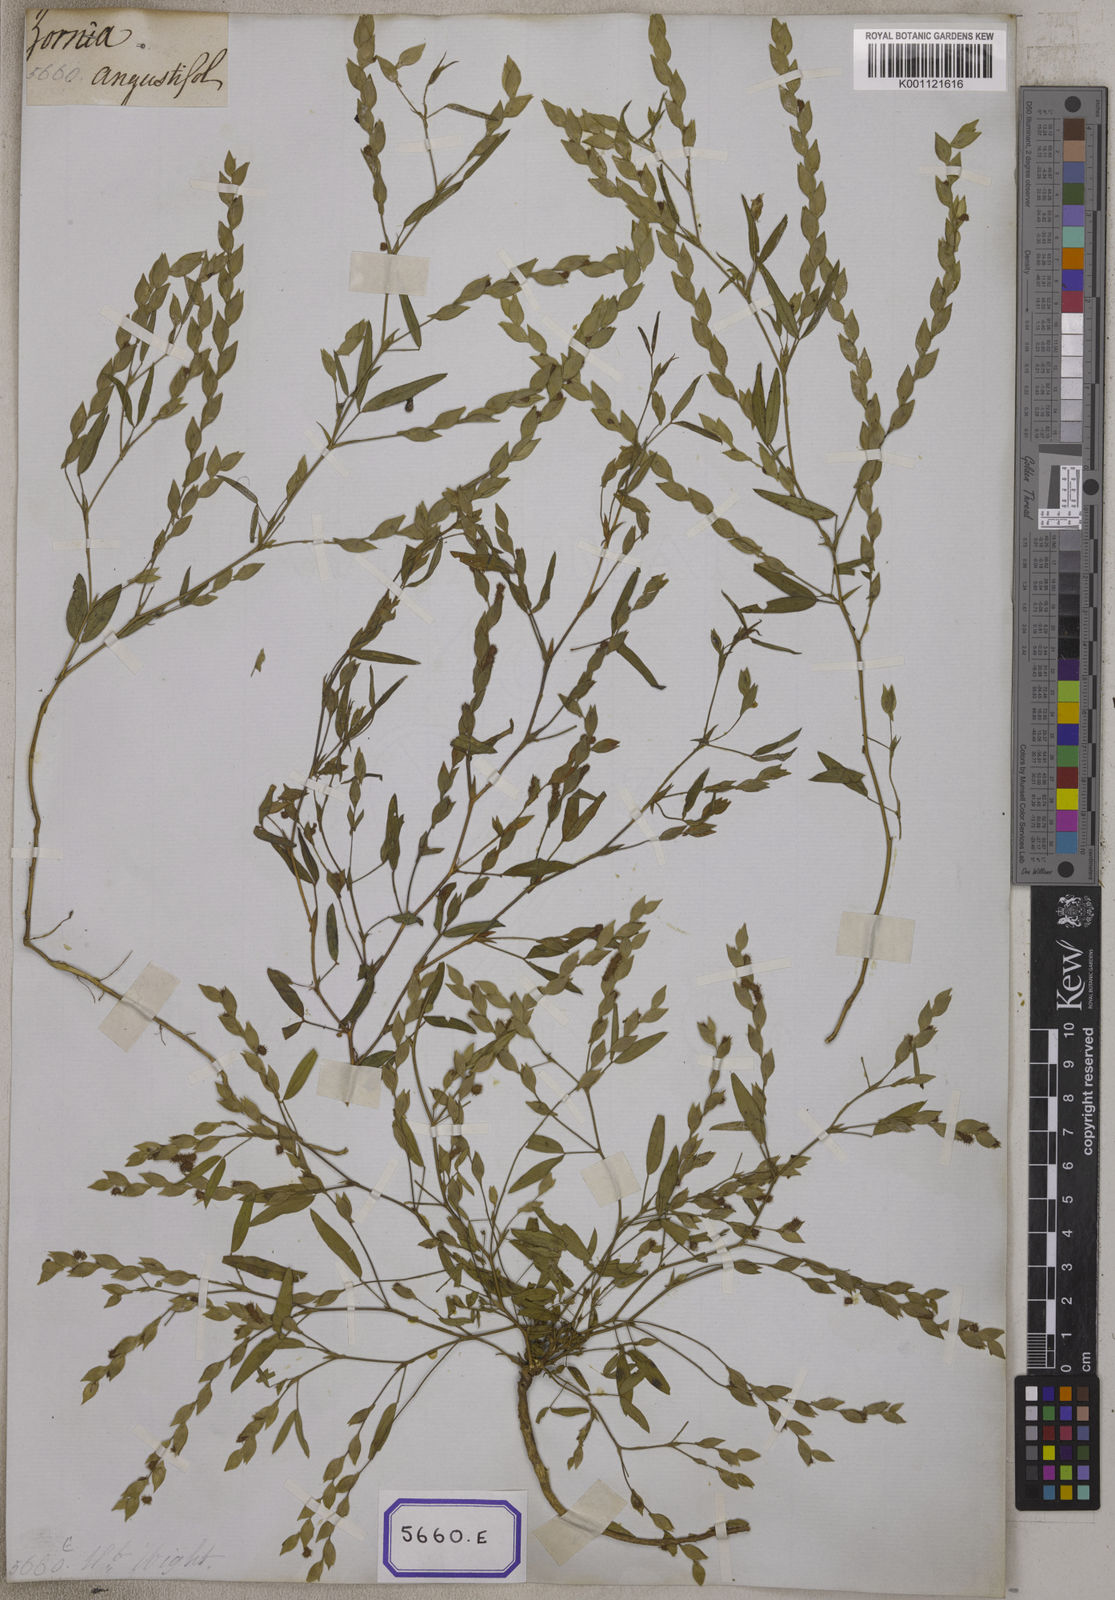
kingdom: Plantae
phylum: Tracheophyta
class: Magnoliopsida
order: Fabales
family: Fabaceae
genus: Zornia
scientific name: Zornia gibbosa
